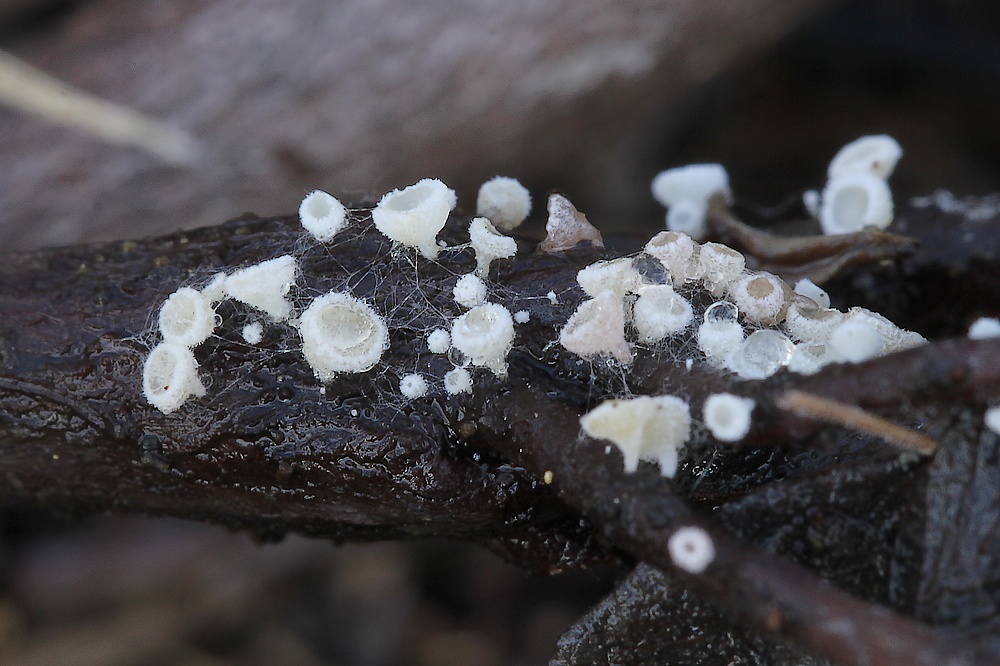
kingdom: Fungi
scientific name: Fungi
